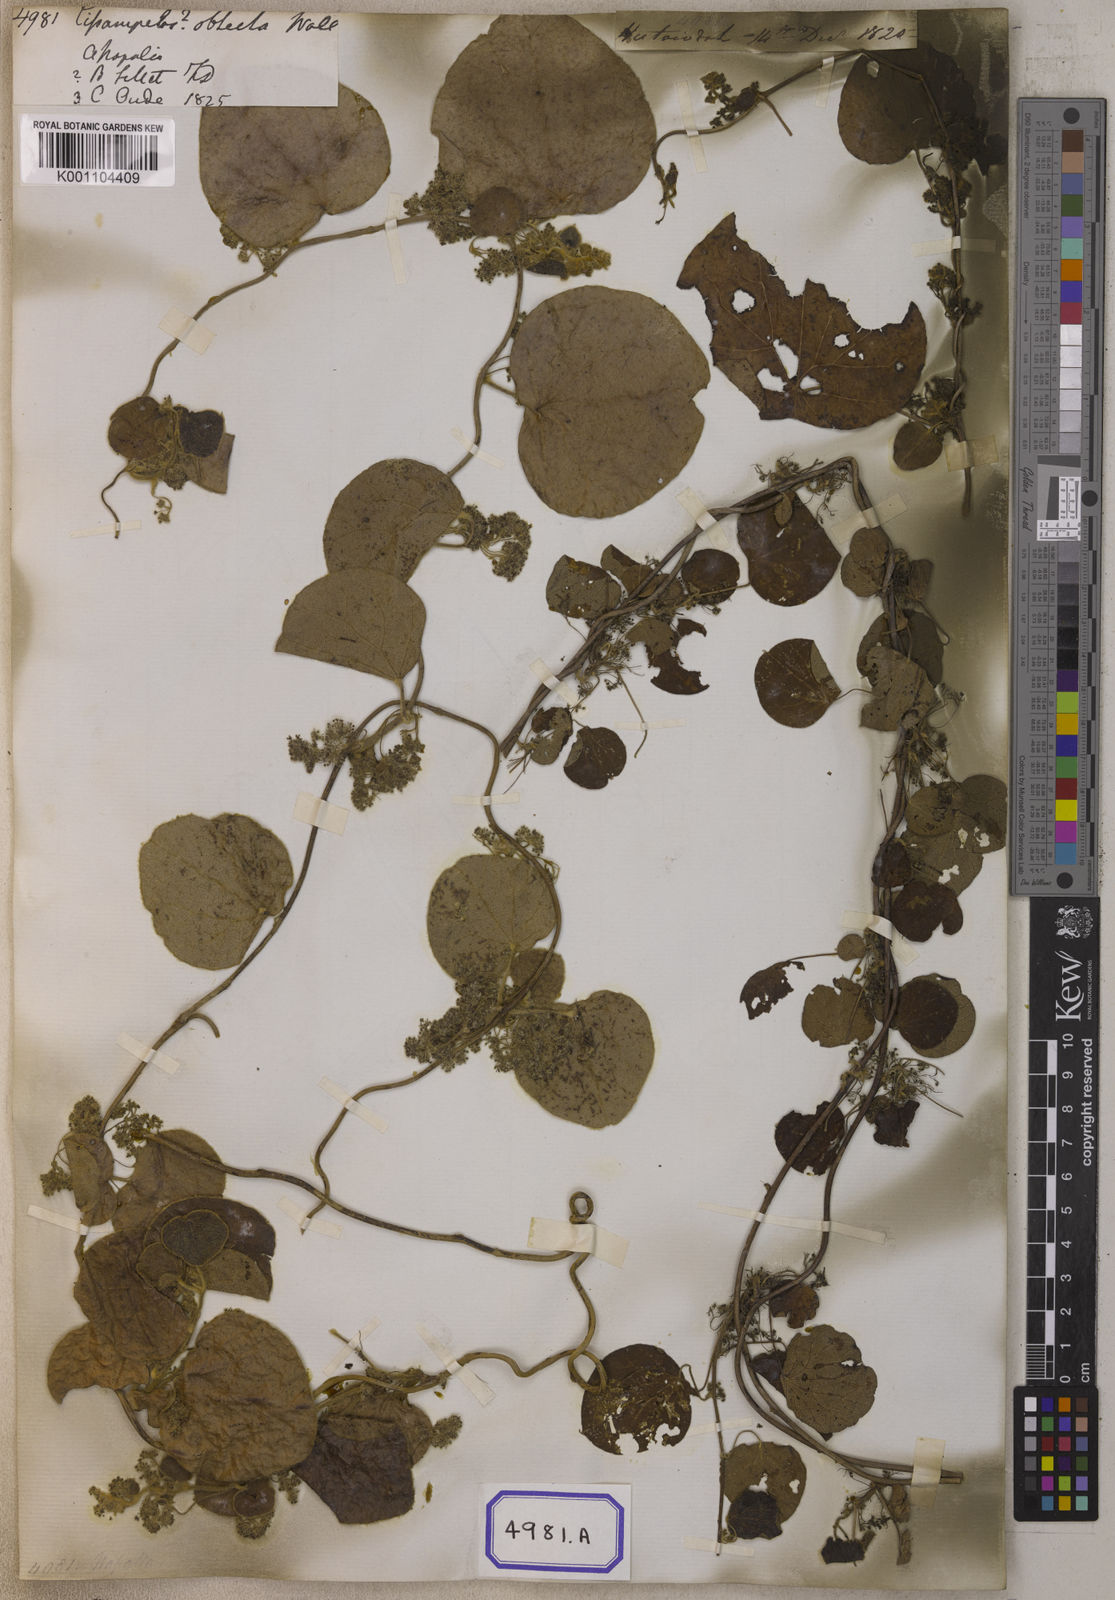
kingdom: Plantae
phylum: Tracheophyta
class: Magnoliopsida
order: Ranunculales
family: Menispermaceae
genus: Cissampelos
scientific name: Cissampelos
